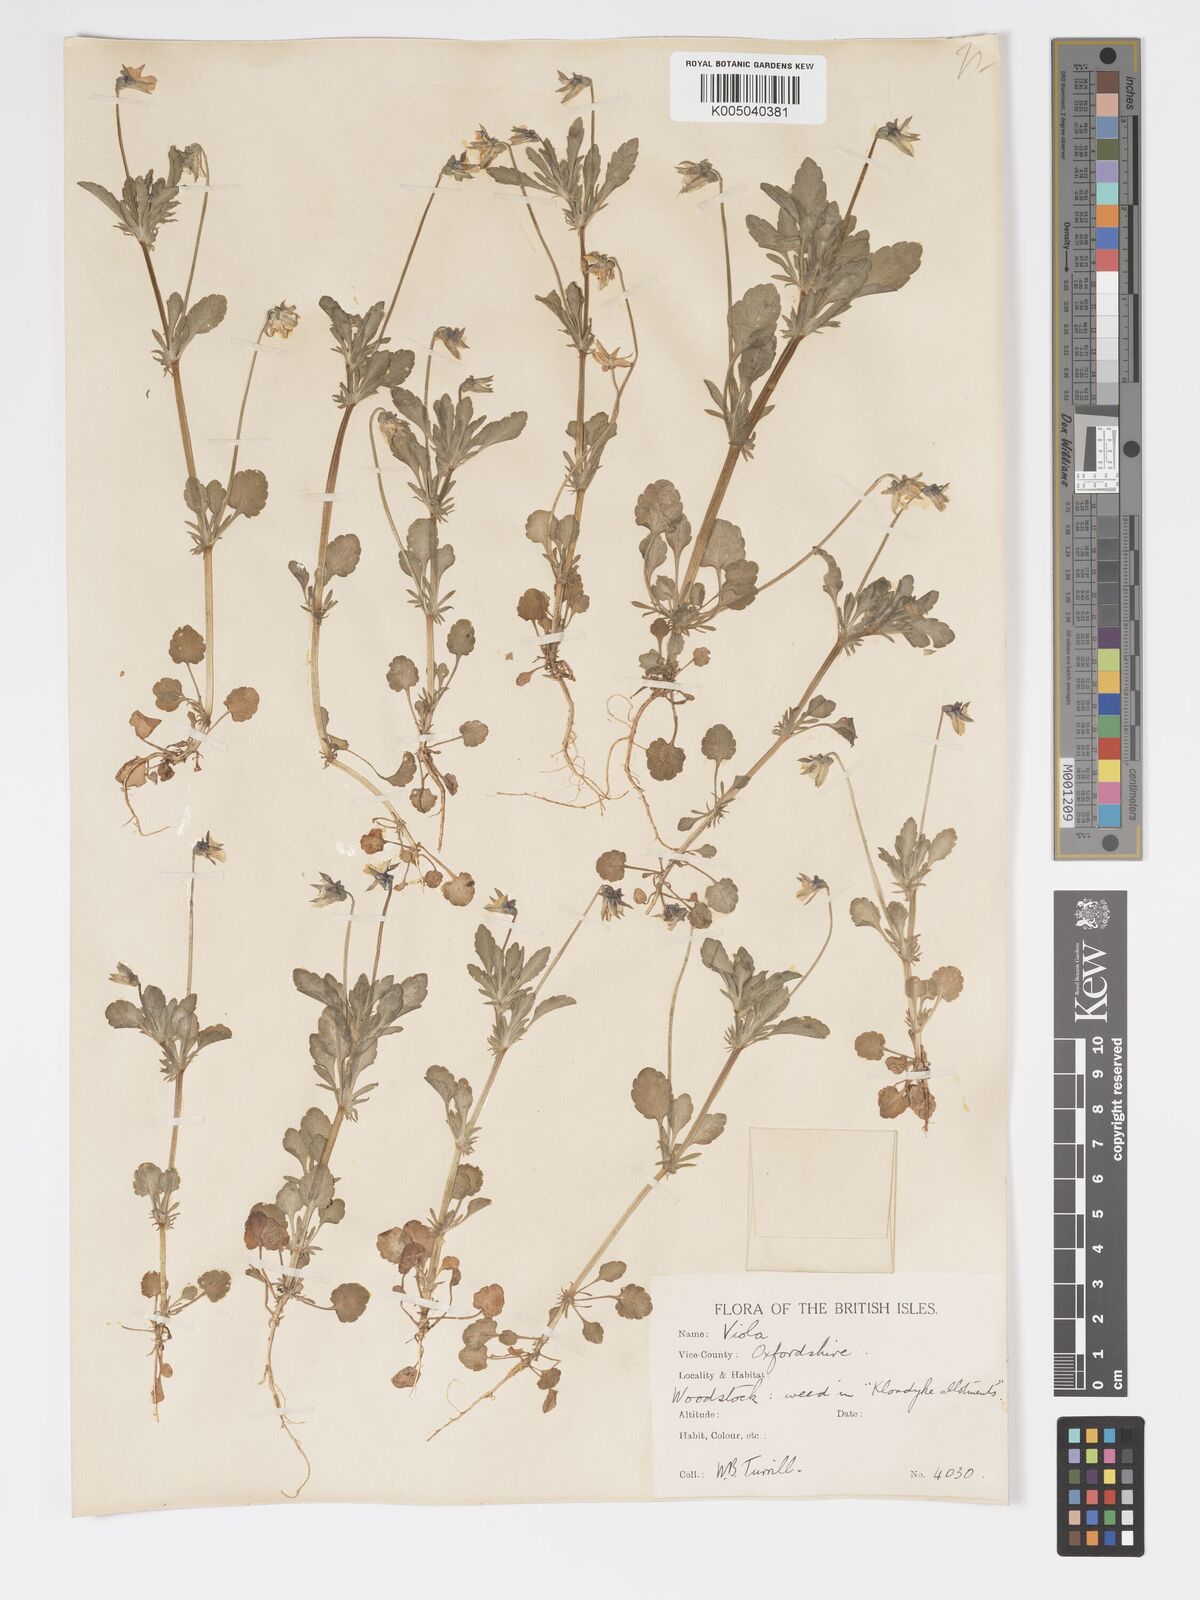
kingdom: Plantae
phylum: Tracheophyta
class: Magnoliopsida
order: Malpighiales
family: Violaceae
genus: Viola
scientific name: Viola arvensis
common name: Field pansy
